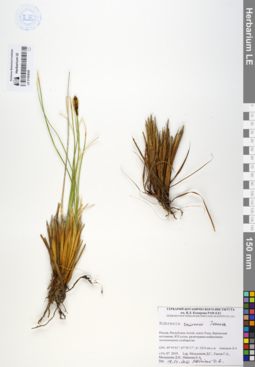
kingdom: Plantae
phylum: Tracheophyta
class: Liliopsida
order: Poales
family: Cyperaceae
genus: Carex
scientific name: Carex borealipolaris
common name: Siberian bog sedge
